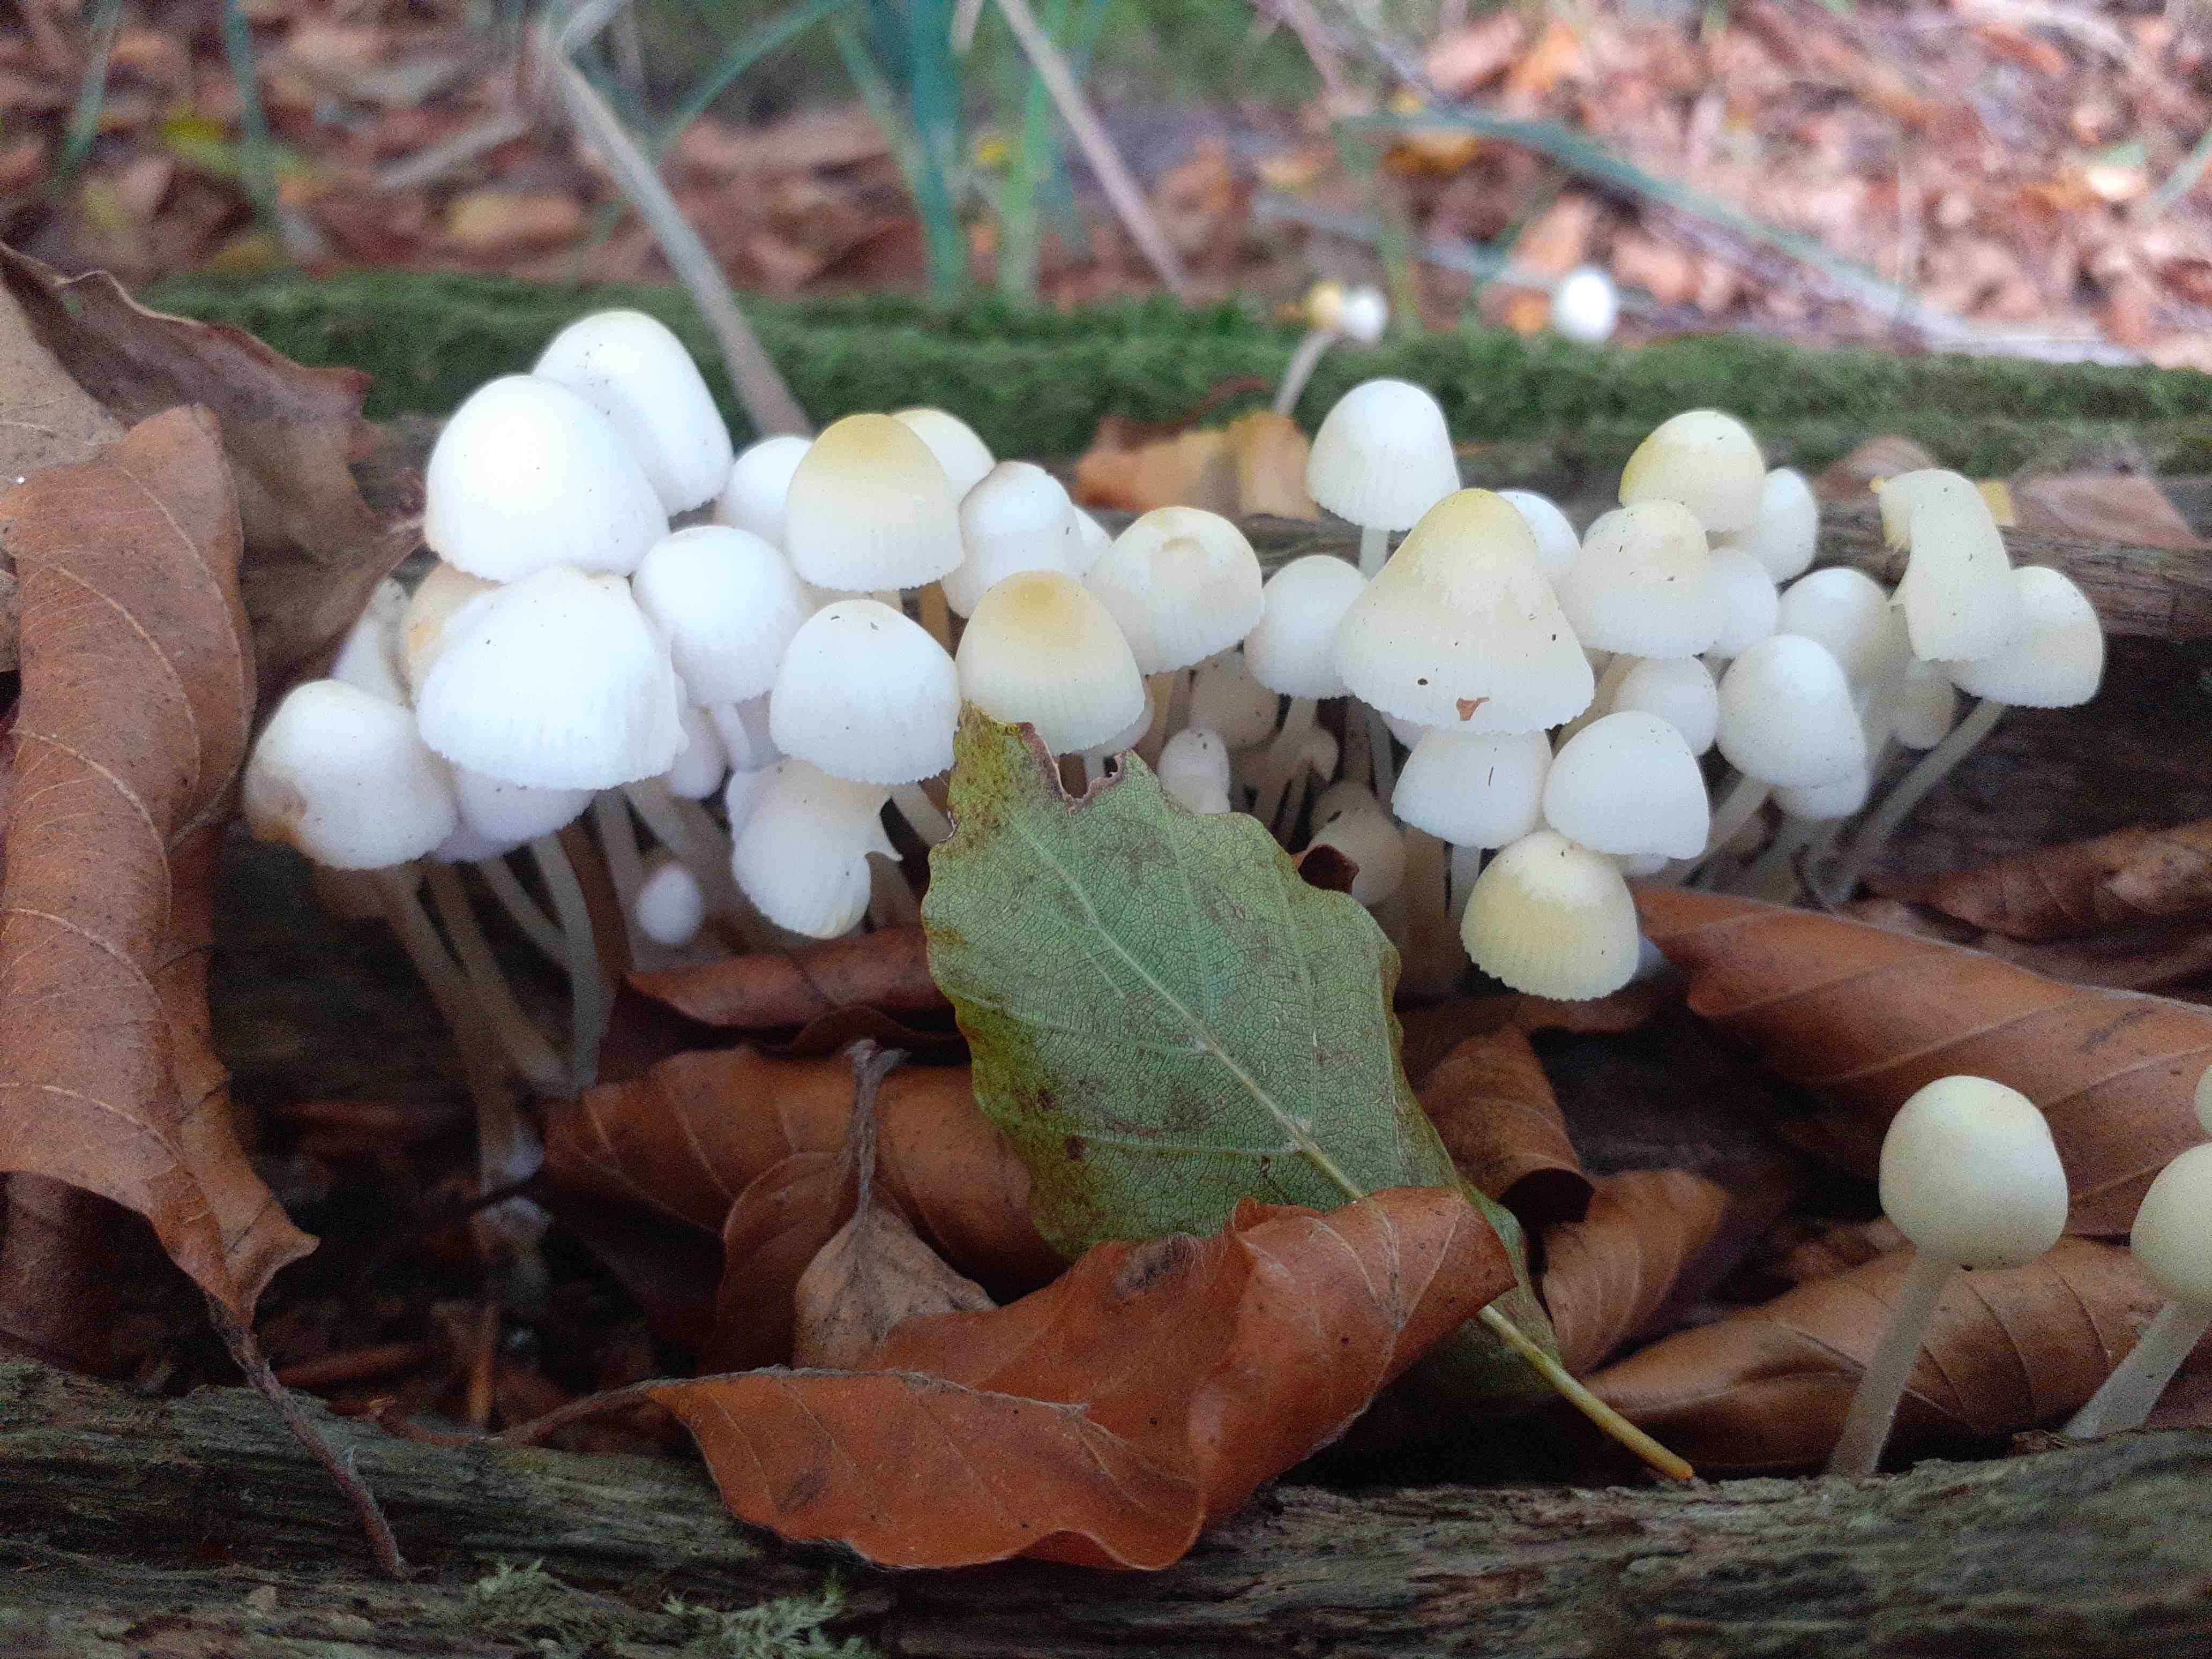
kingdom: Fungi
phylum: Basidiomycota
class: Agaricomycetes
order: Agaricales
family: Mycenaceae
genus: Mycena
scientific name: Mycena inclinata
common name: nikkende huesvamp
